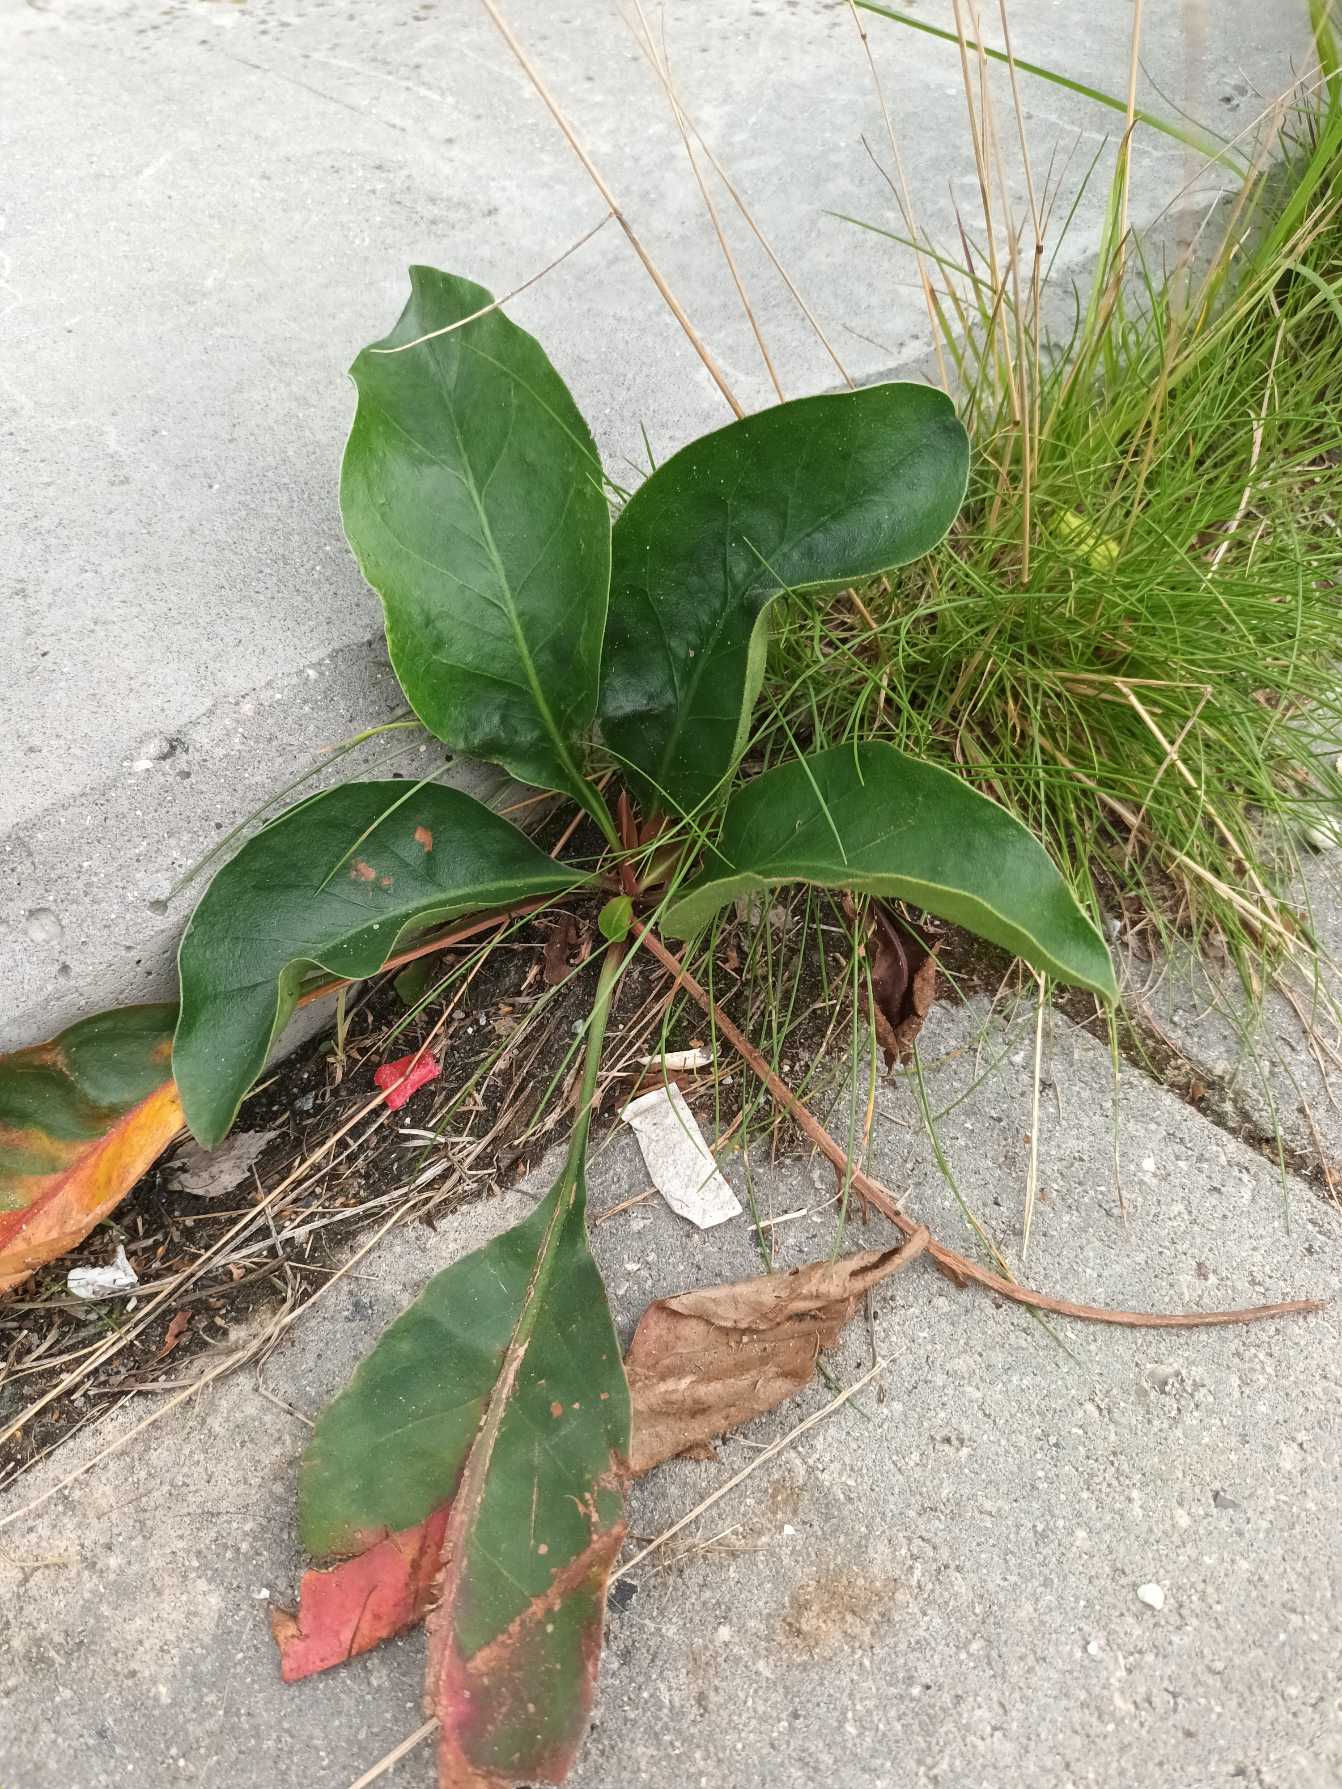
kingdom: Plantae
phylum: Tracheophyta
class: Magnoliopsida
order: Caryophyllales
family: Plumbaginaceae
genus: Limonium
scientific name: Limonium platyphyllum
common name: Sølv-hindebæger
